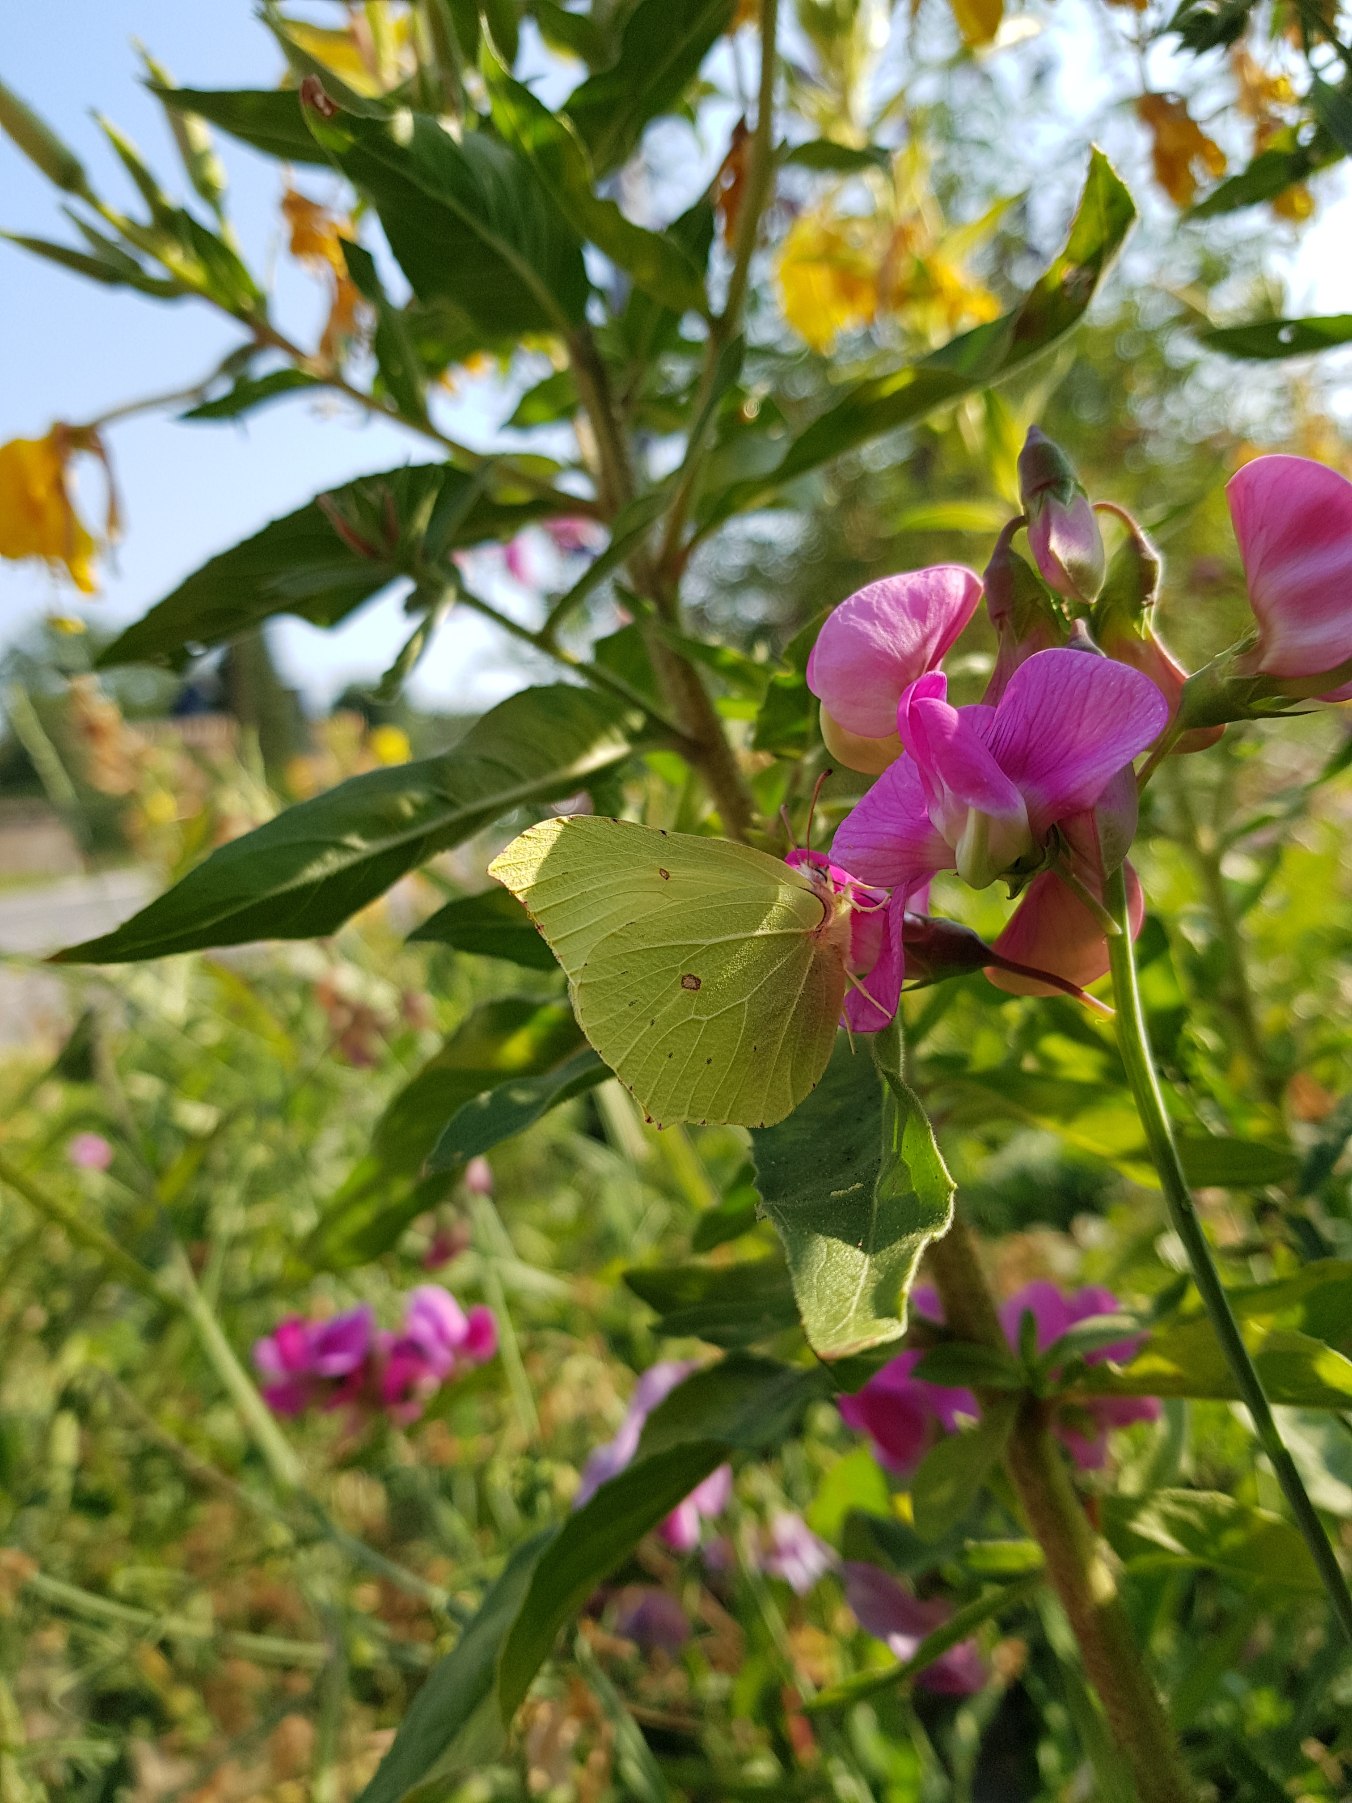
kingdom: Animalia
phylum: Arthropoda
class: Insecta
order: Lepidoptera
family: Pieridae
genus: Gonepteryx
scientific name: Gonepteryx rhamni
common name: Citronsommerfugl
